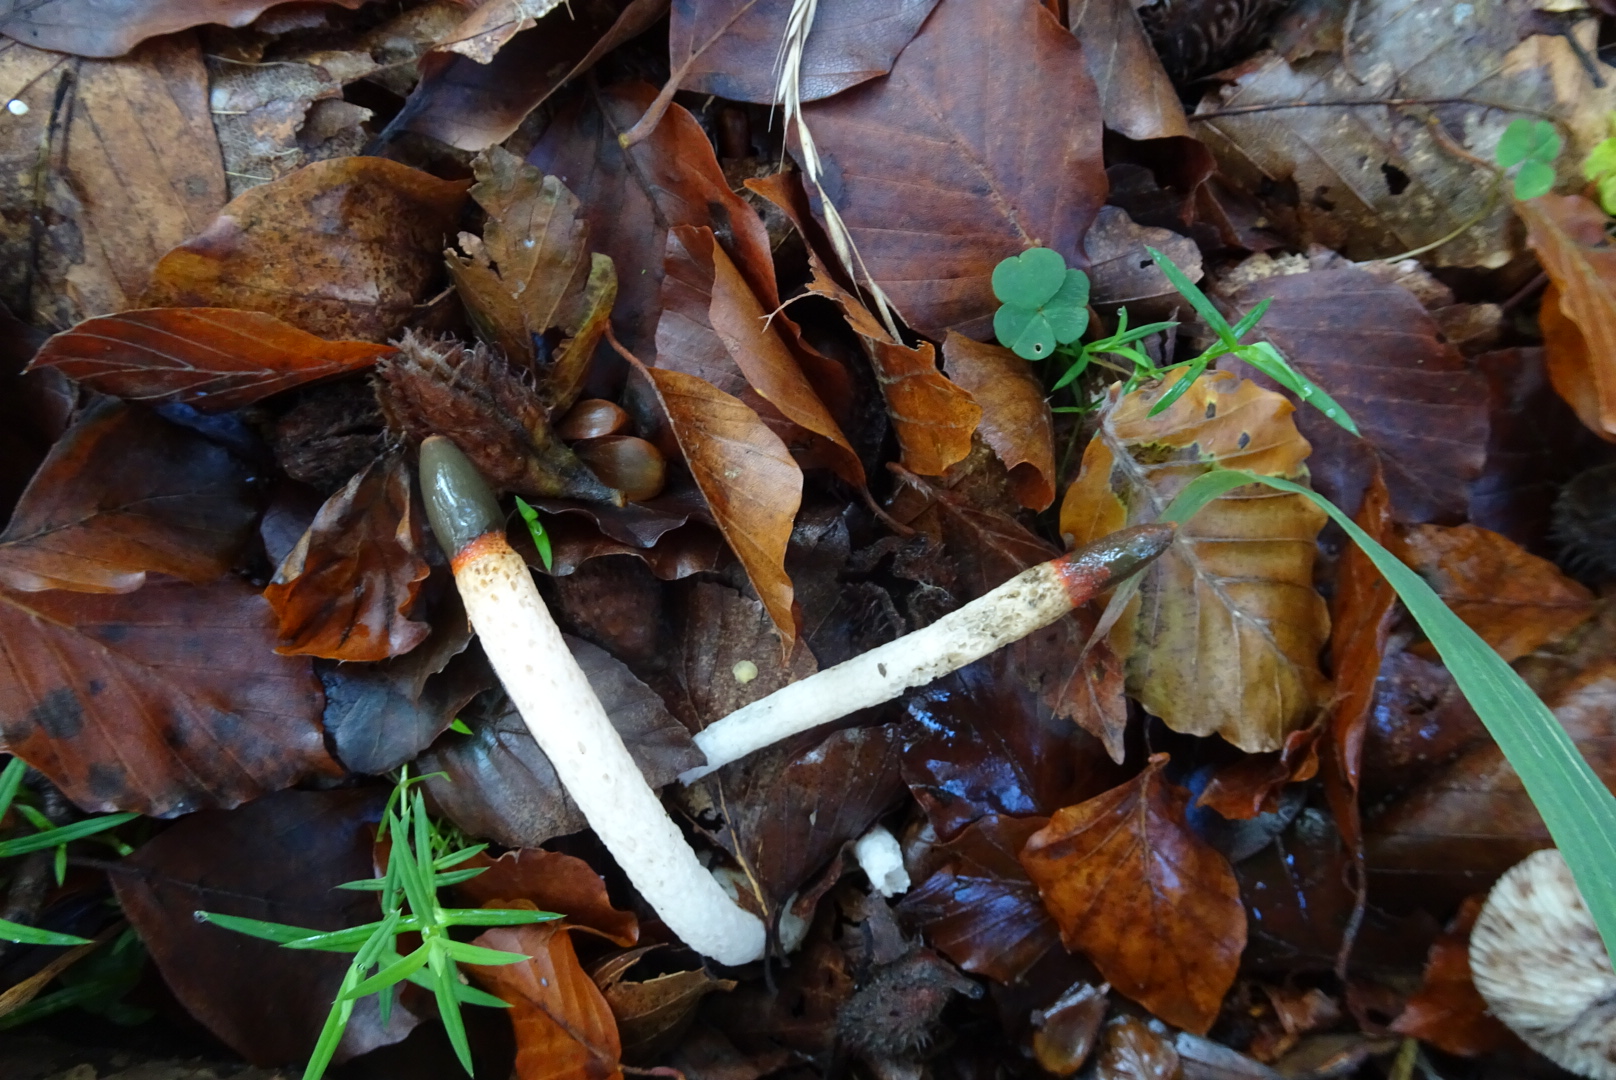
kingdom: Fungi
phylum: Basidiomycota
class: Agaricomycetes
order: Phallales
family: Phallaceae
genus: Mutinus
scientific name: Mutinus caninus
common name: hunde-stinksvamp
